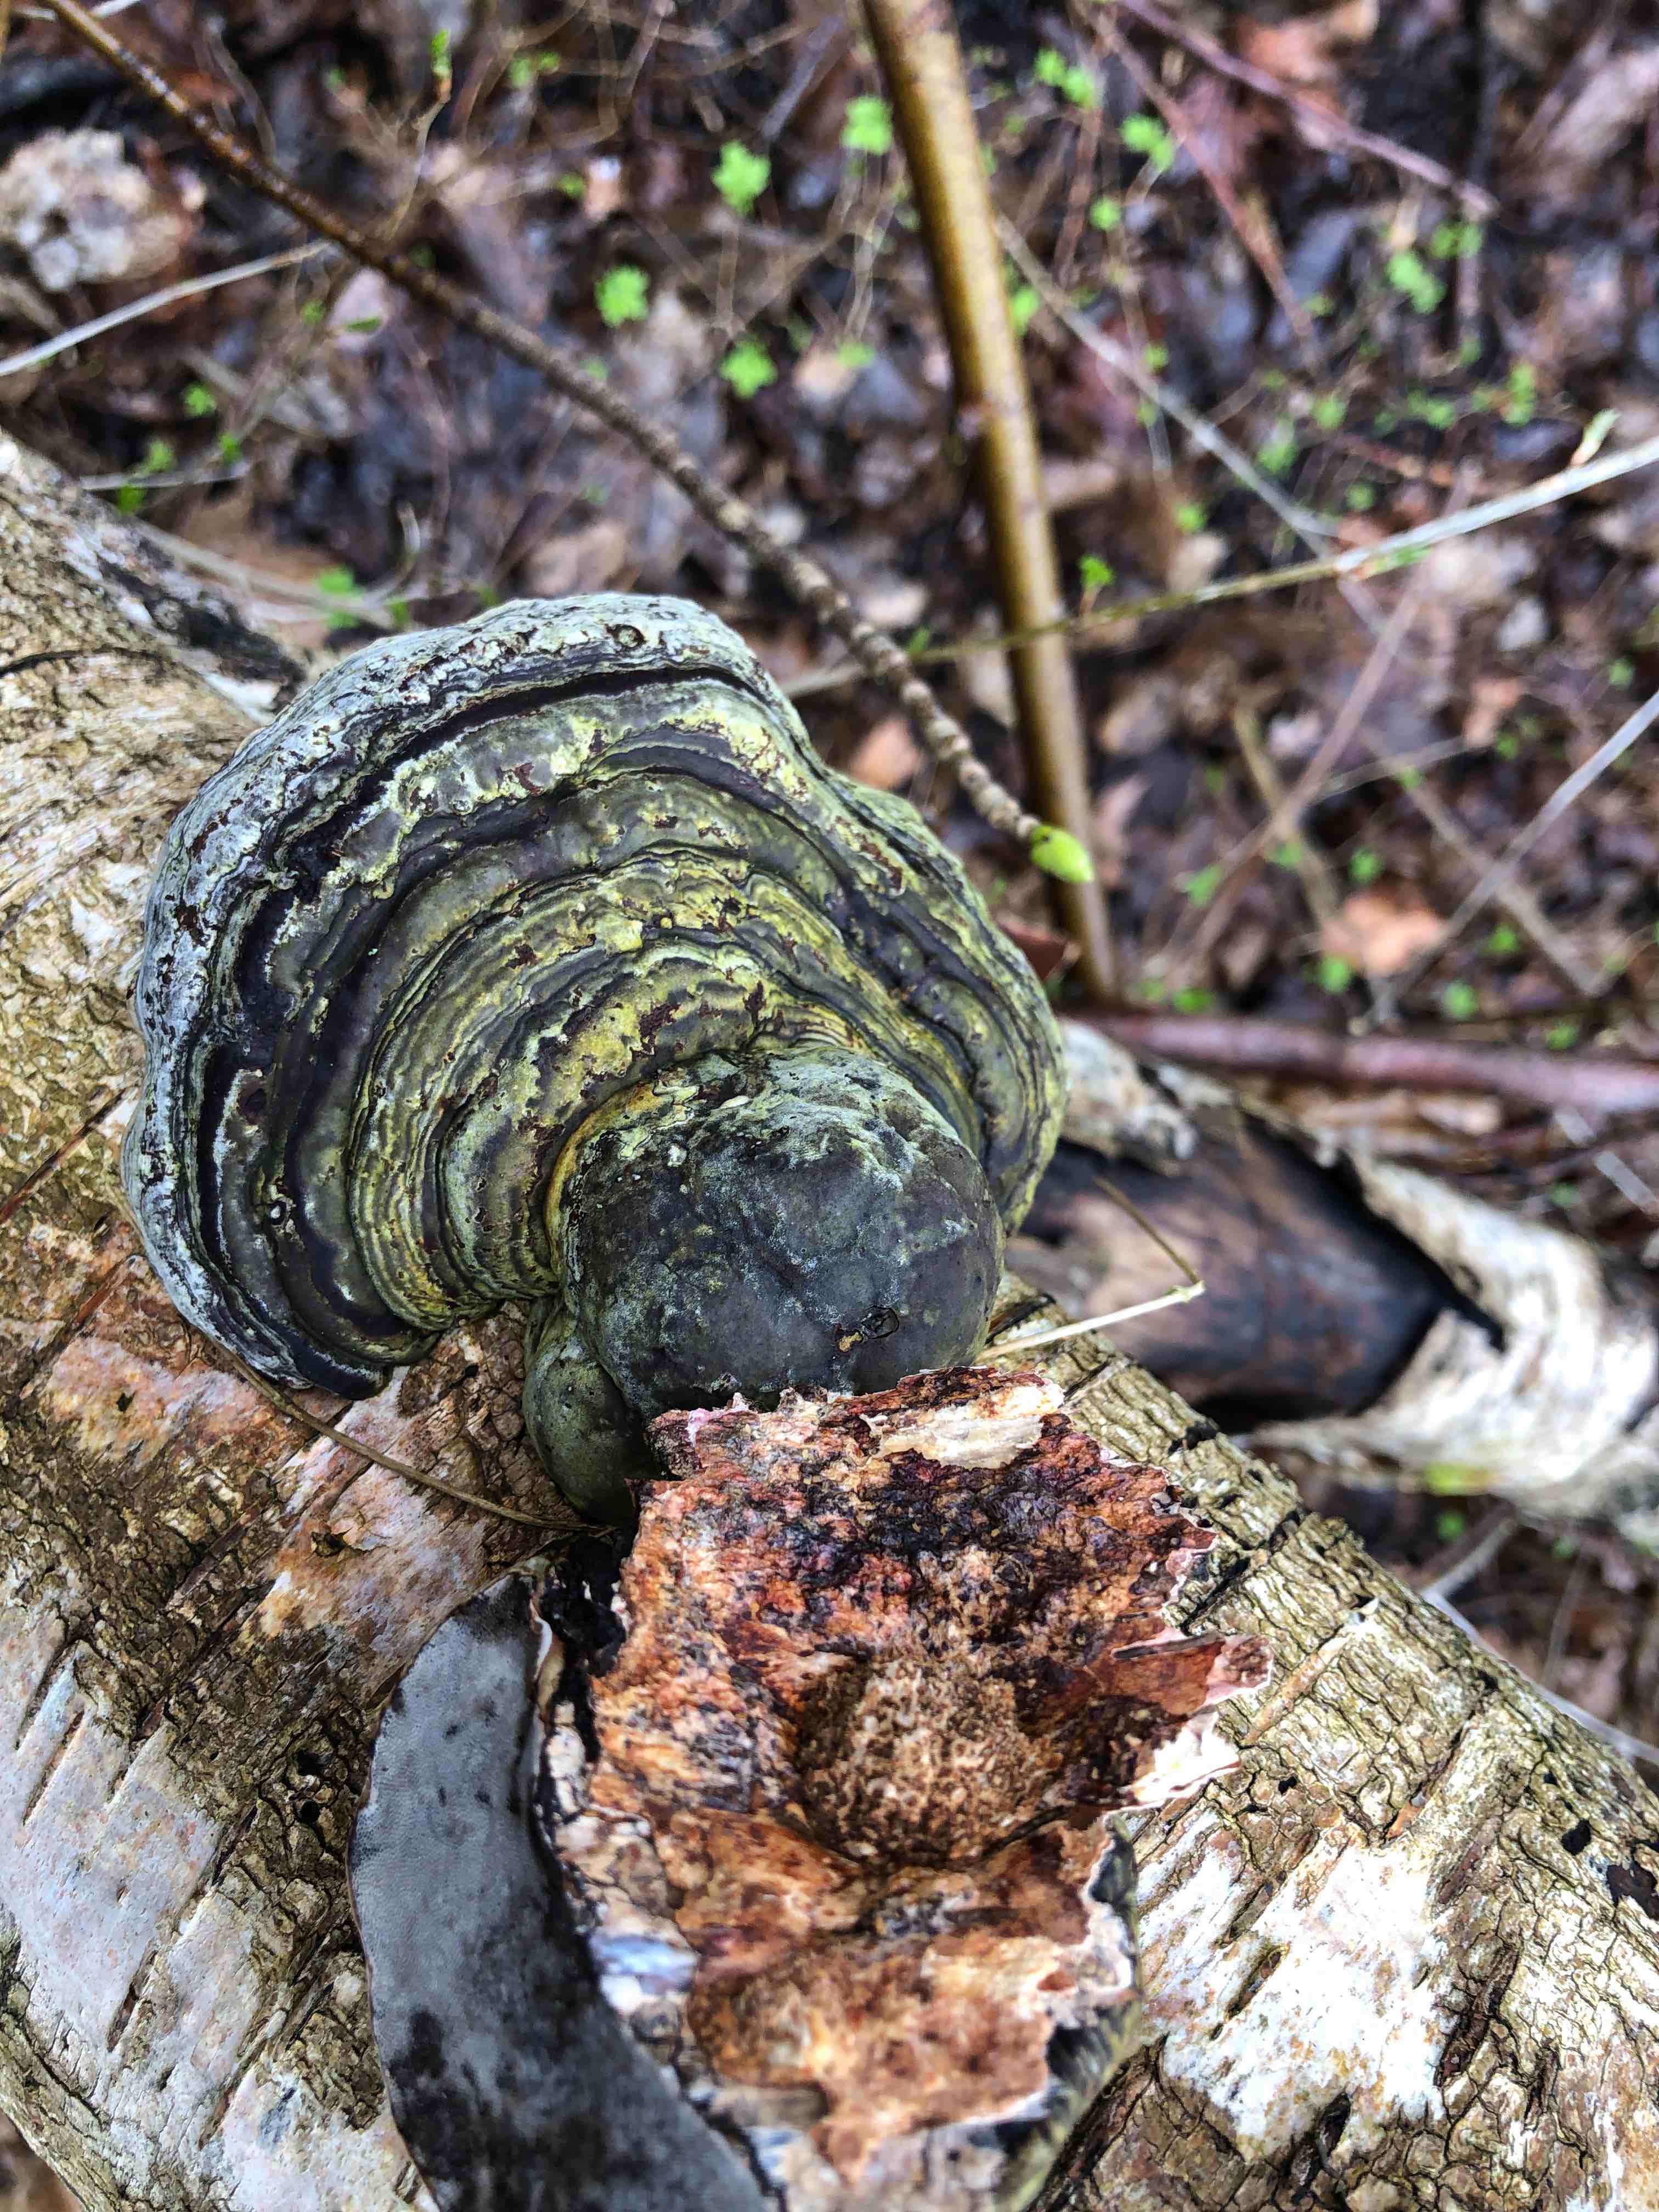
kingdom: Fungi
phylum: Basidiomycota
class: Agaricomycetes
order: Polyporales
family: Polyporaceae
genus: Fomes
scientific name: Fomes fomentarius
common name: tøndersvamp
